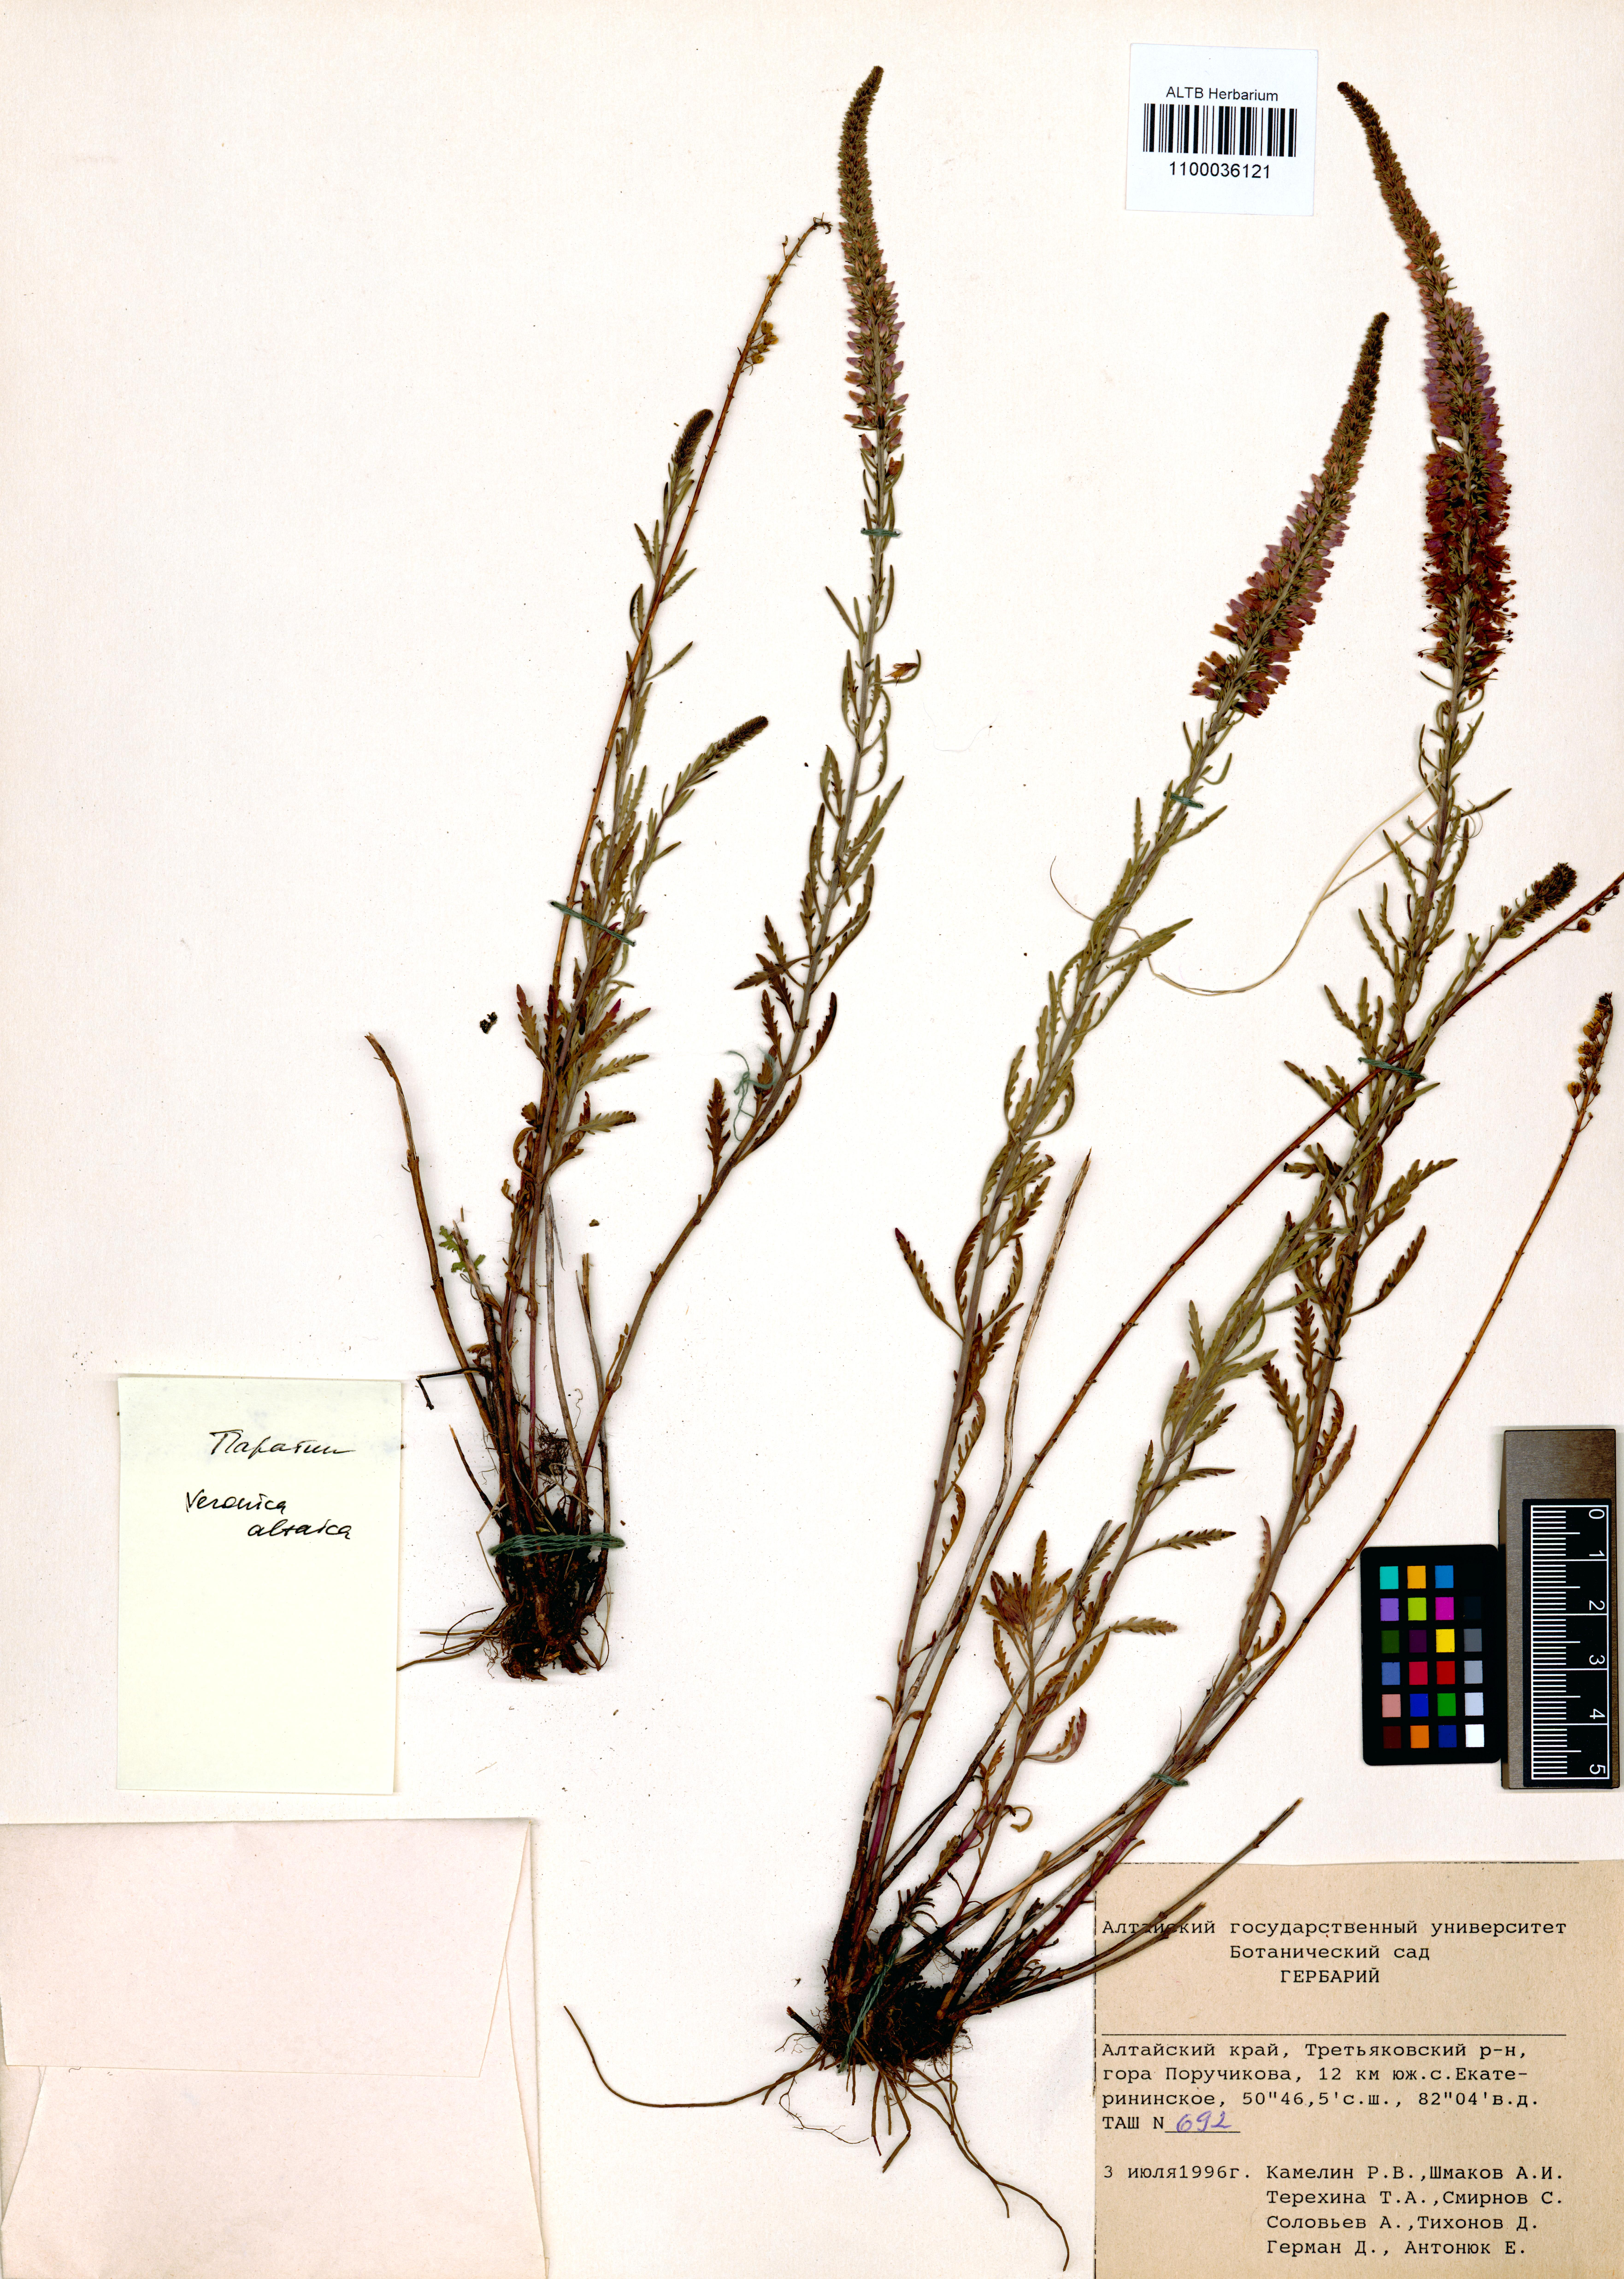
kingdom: Plantae
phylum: Tracheophyta
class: Magnoliopsida
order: Lamiales
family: Plantaginaceae
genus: Veronica
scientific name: Veronica altaica
